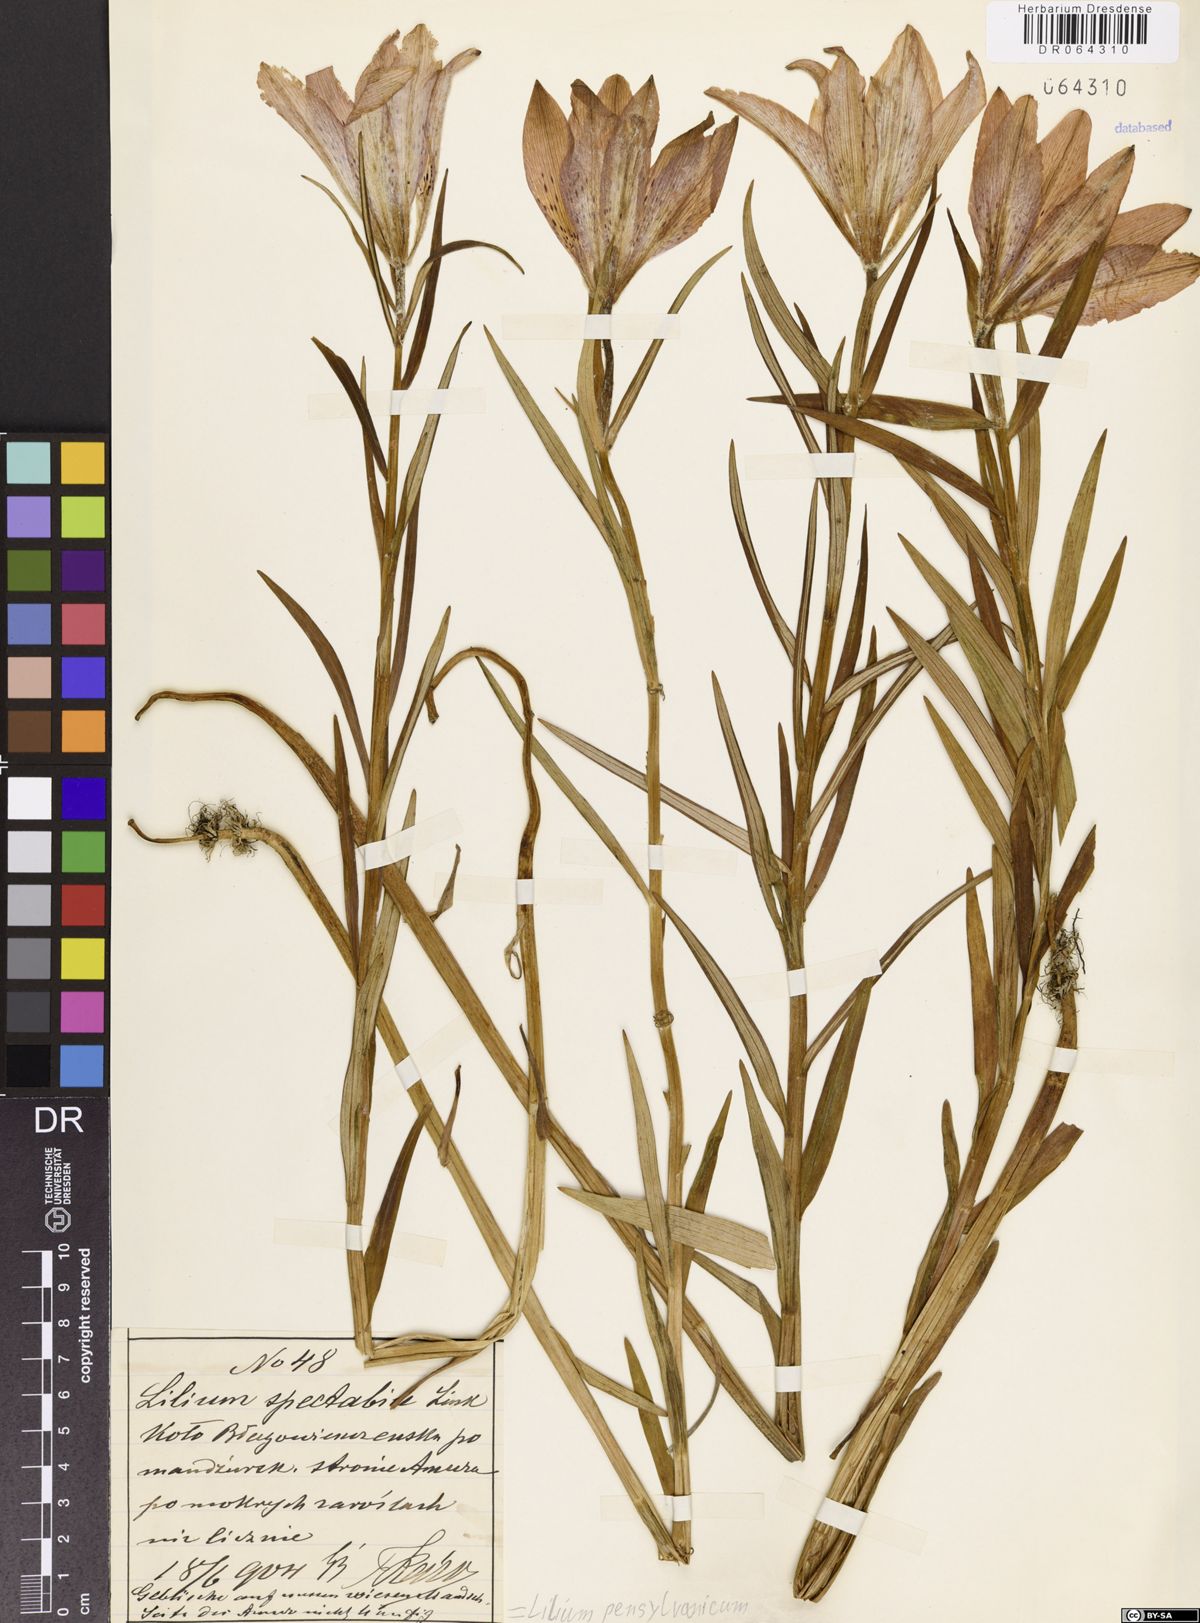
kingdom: Plantae
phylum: Tracheophyta
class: Liliopsida
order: Liliales
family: Liliaceae
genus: Lilium
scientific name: Lilium pensylvanicum
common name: Candlestick lily
